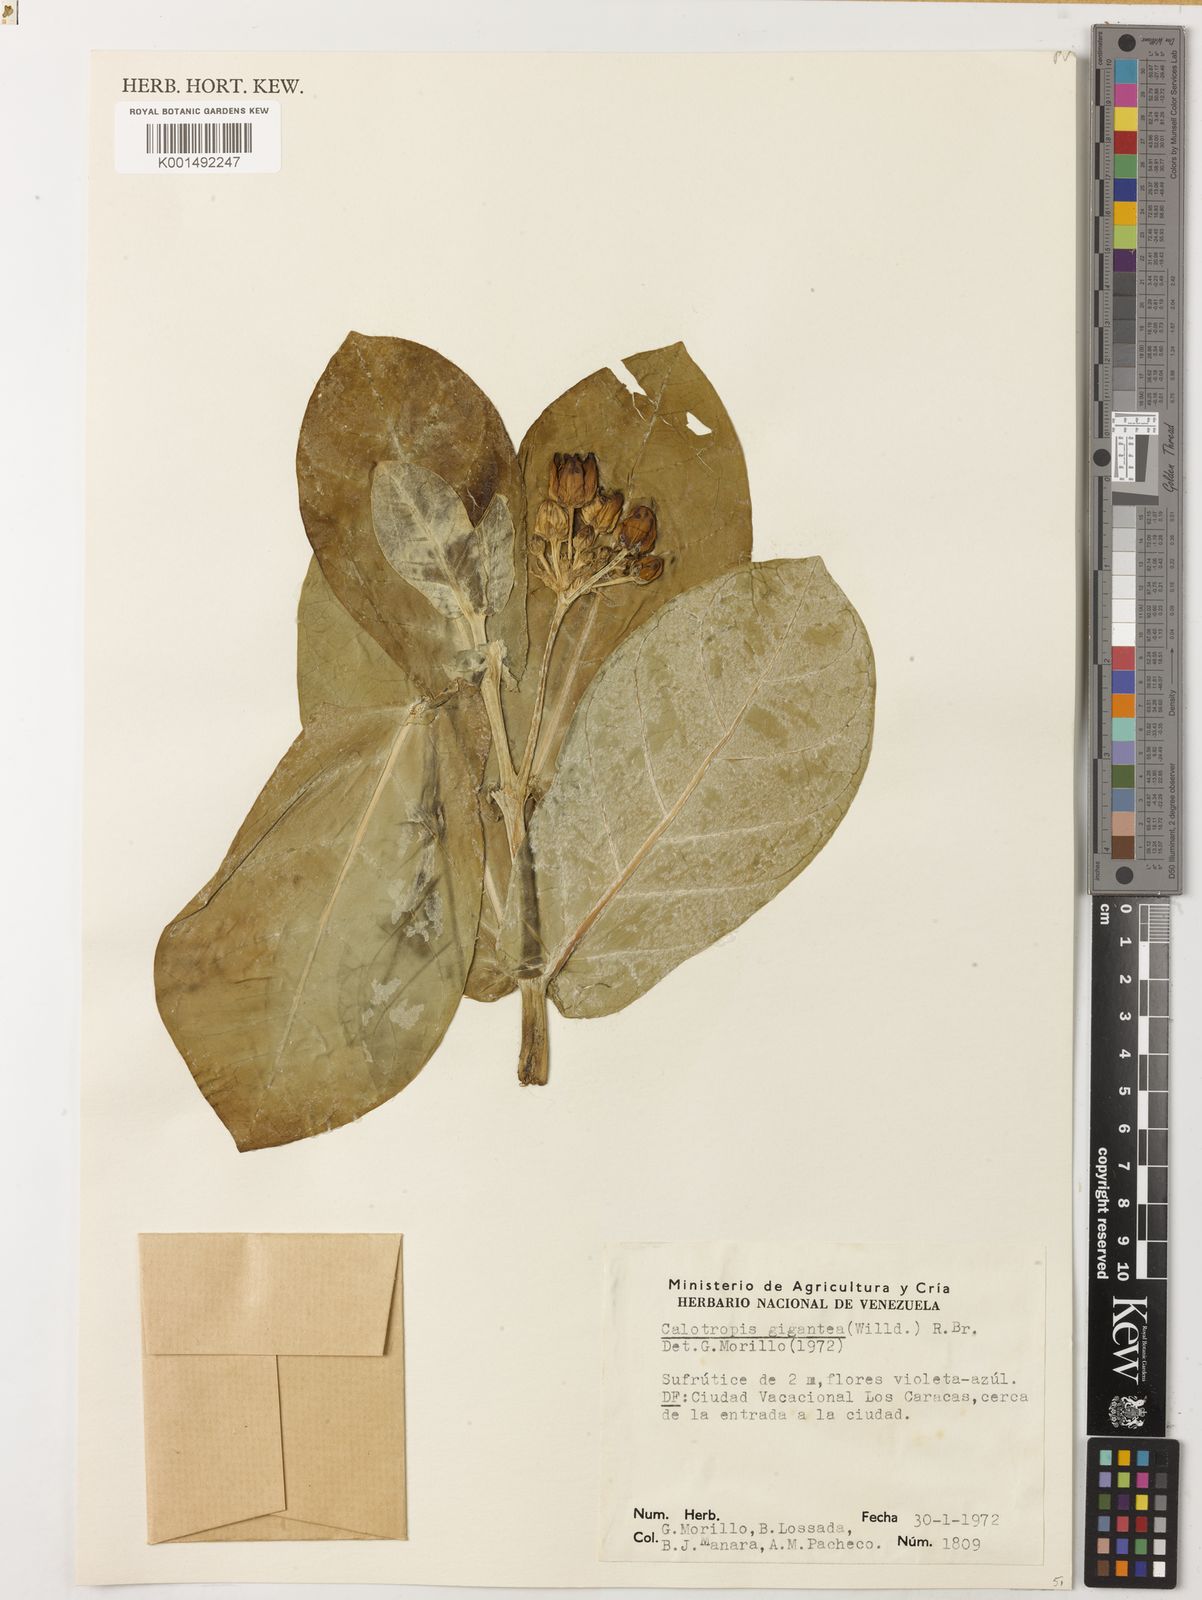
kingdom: Plantae
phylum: Tracheophyta
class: Magnoliopsida
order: Gentianales
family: Apocynaceae
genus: Calotropis
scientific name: Calotropis gigantea
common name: Crown flower
